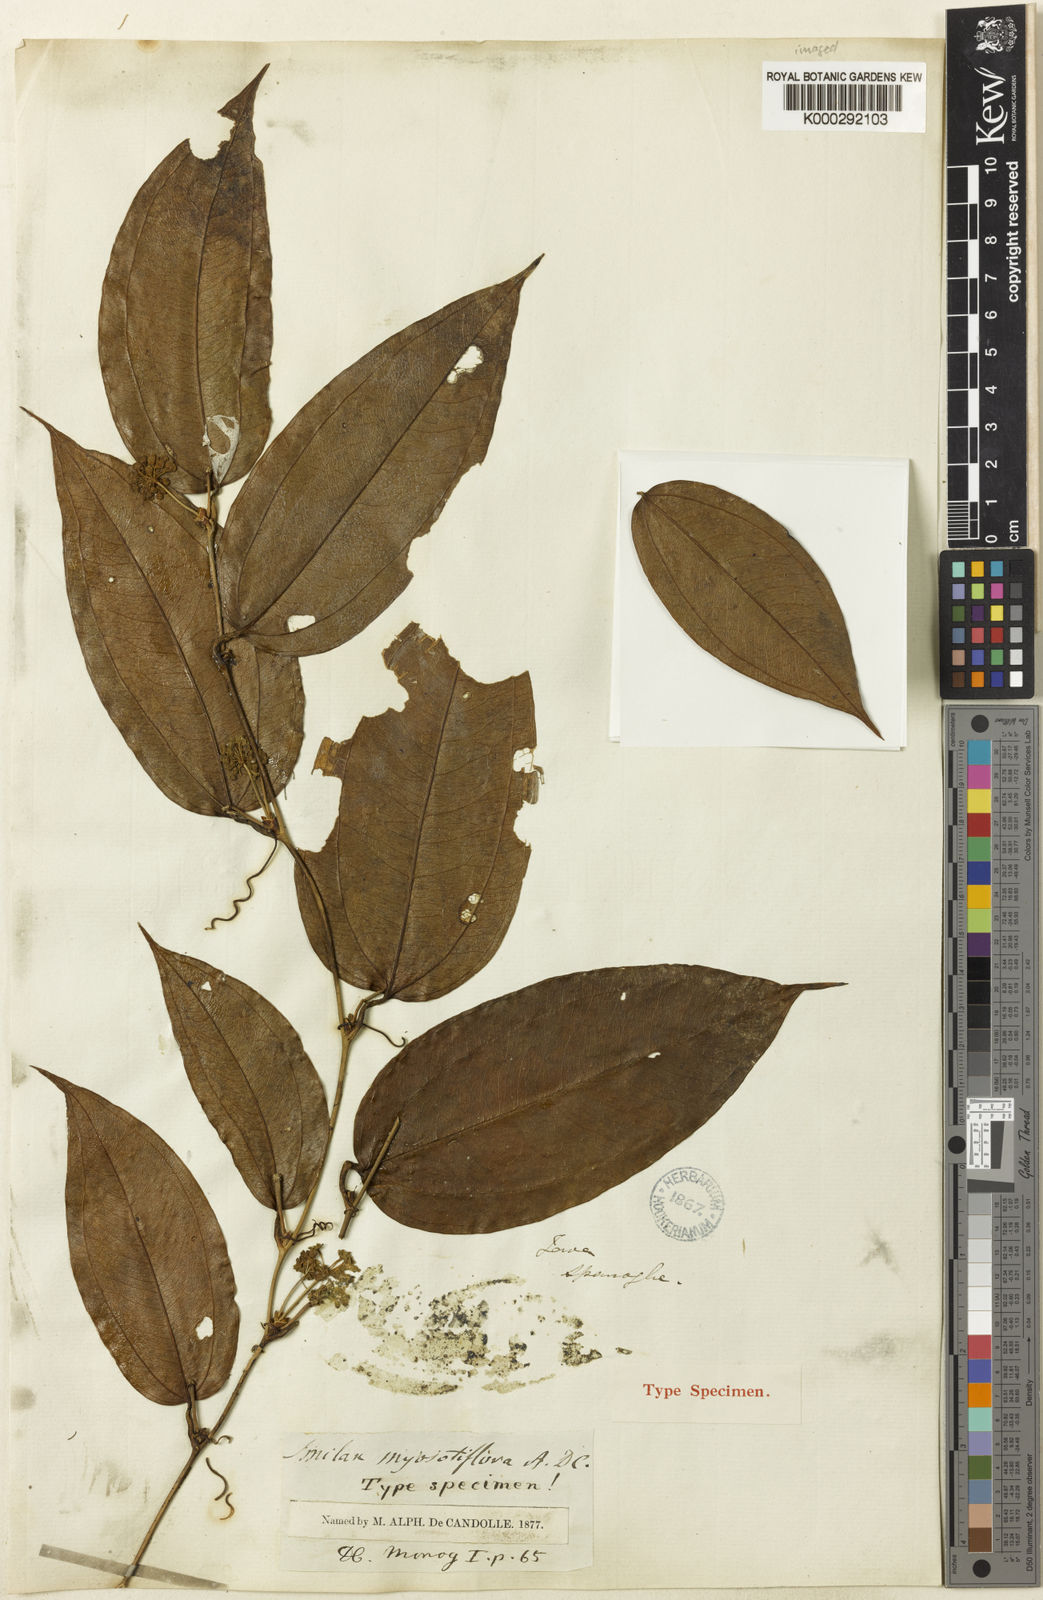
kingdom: Plantae
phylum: Tracheophyta
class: Liliopsida
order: Liliales
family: Smilacaceae
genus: Smilax
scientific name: Smilax myosotiflora
